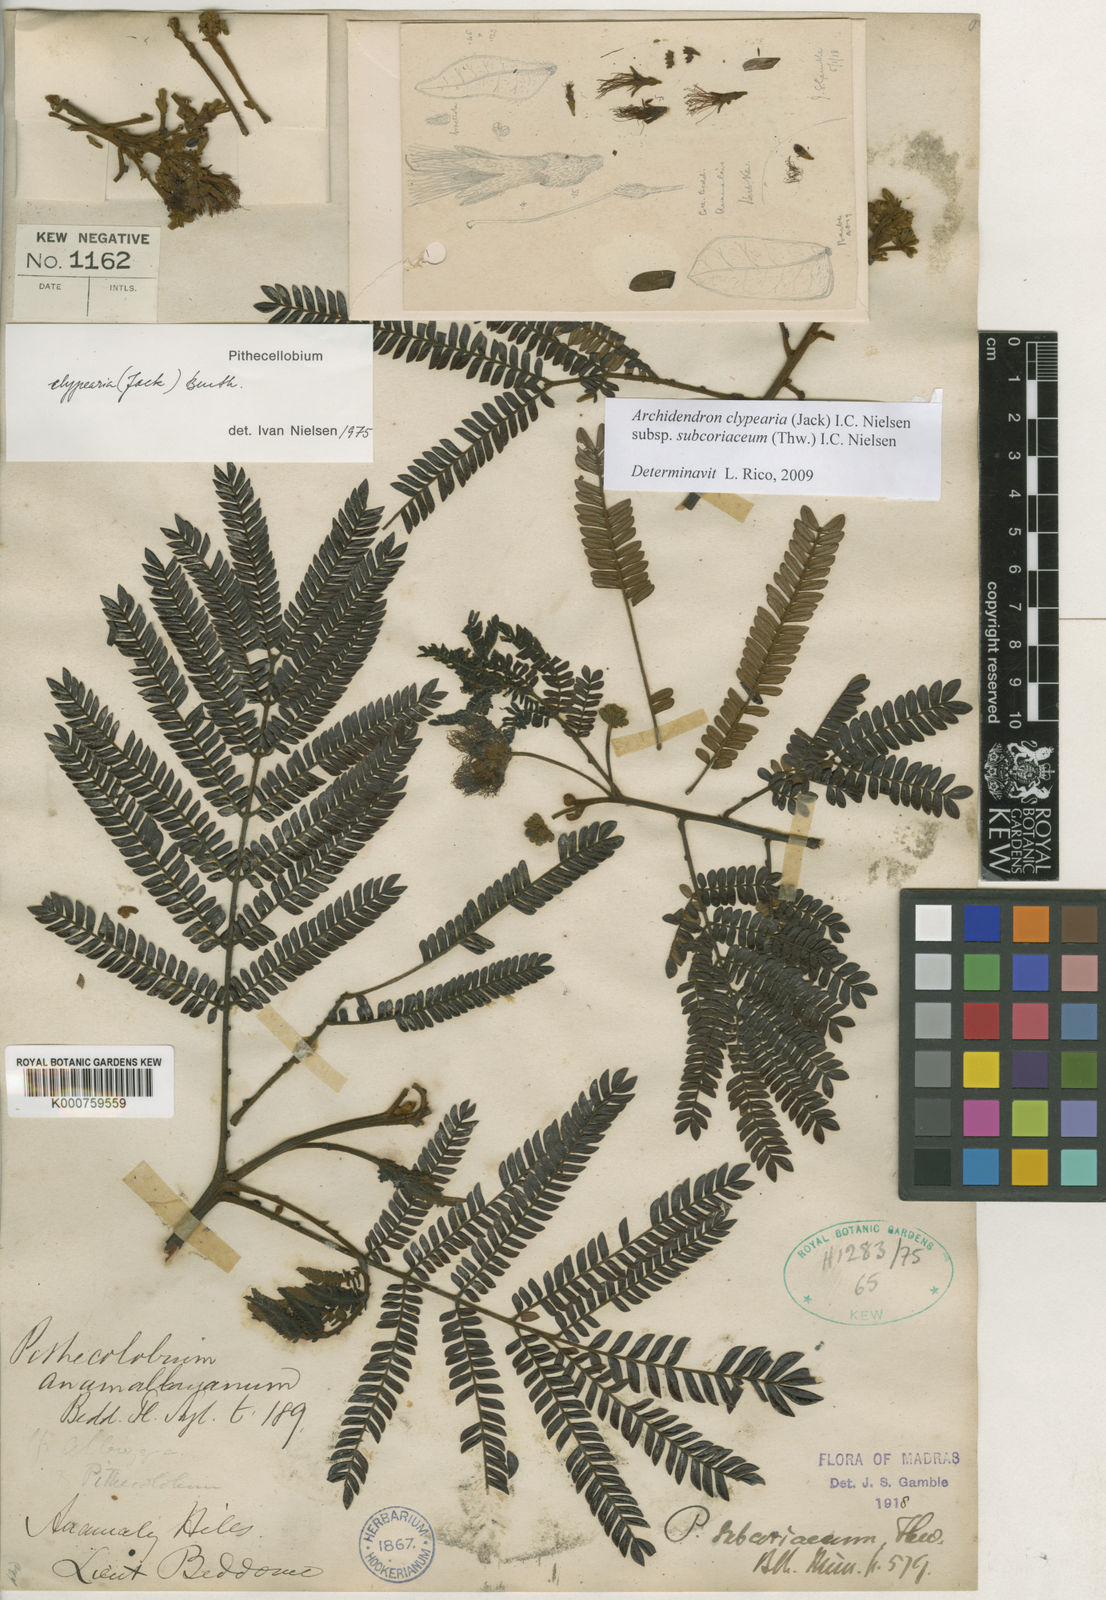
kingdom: Plantae
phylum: Tracheophyta
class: Magnoliopsida
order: Fabales
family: Fabaceae
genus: Archidendron
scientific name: Archidendron clypearia
